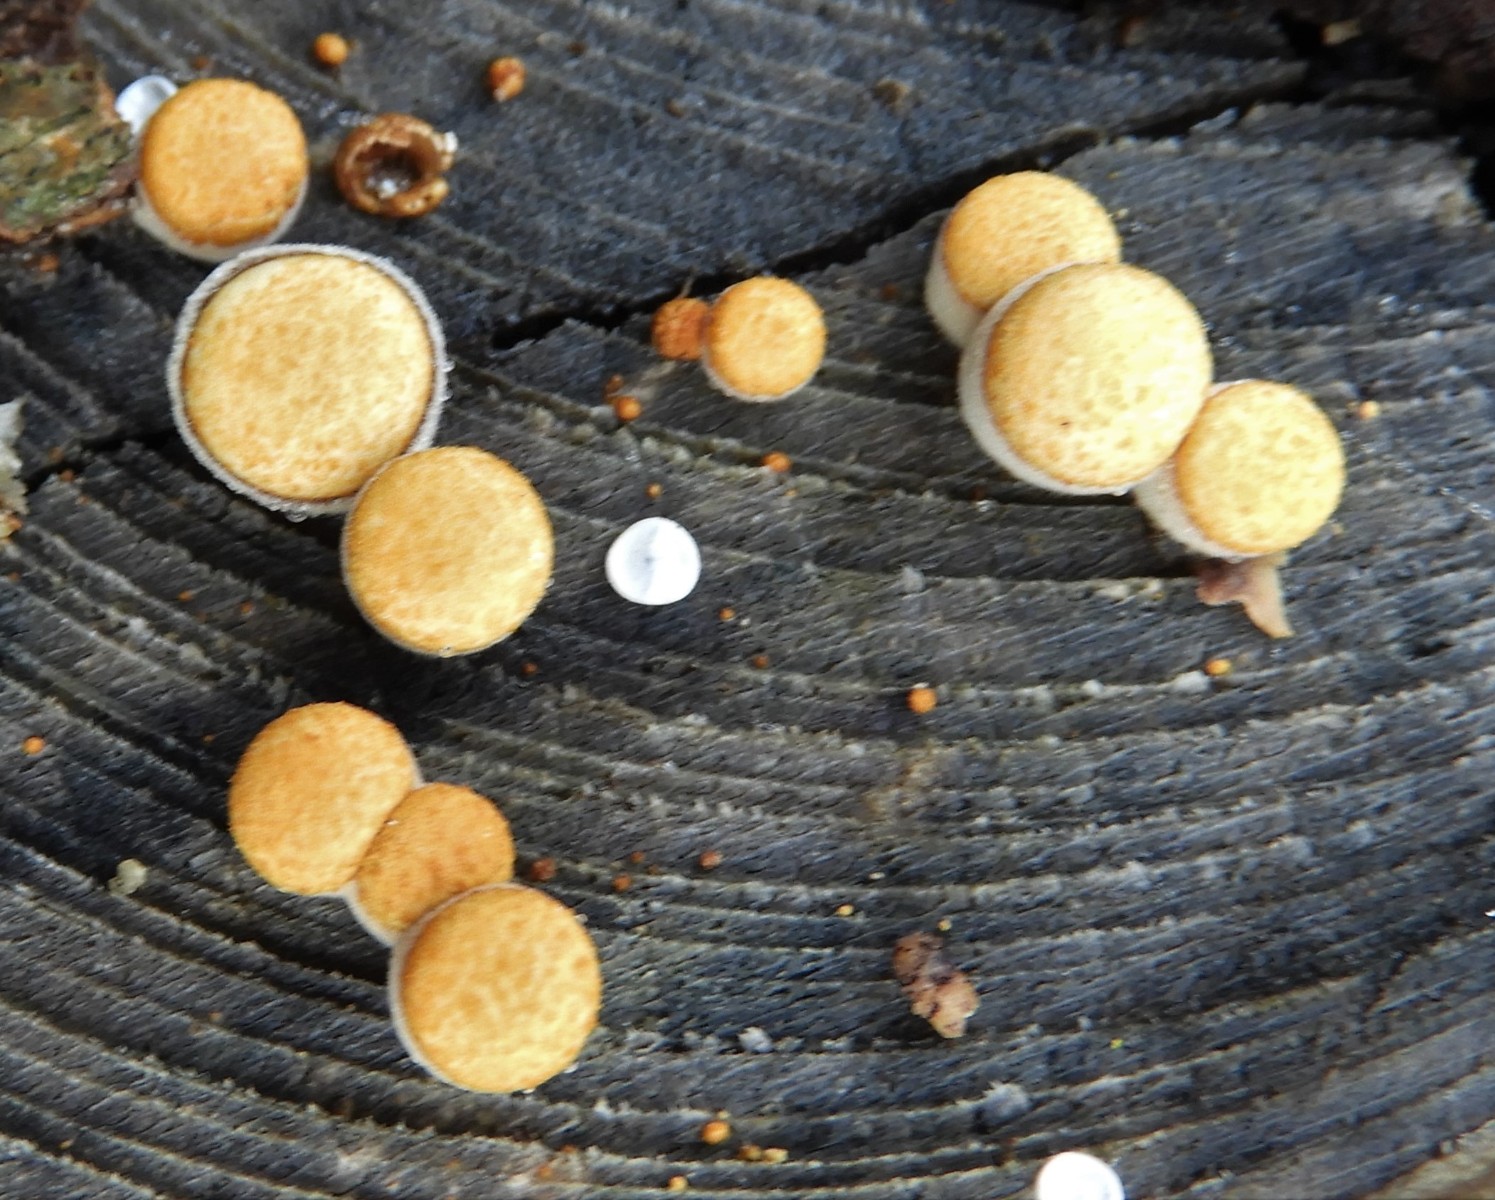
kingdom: Fungi
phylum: Basidiomycota
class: Agaricomycetes
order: Agaricales
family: Nidulariaceae
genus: Crucibulum
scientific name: Crucibulum crucibuliforme
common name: krukkesvamp
